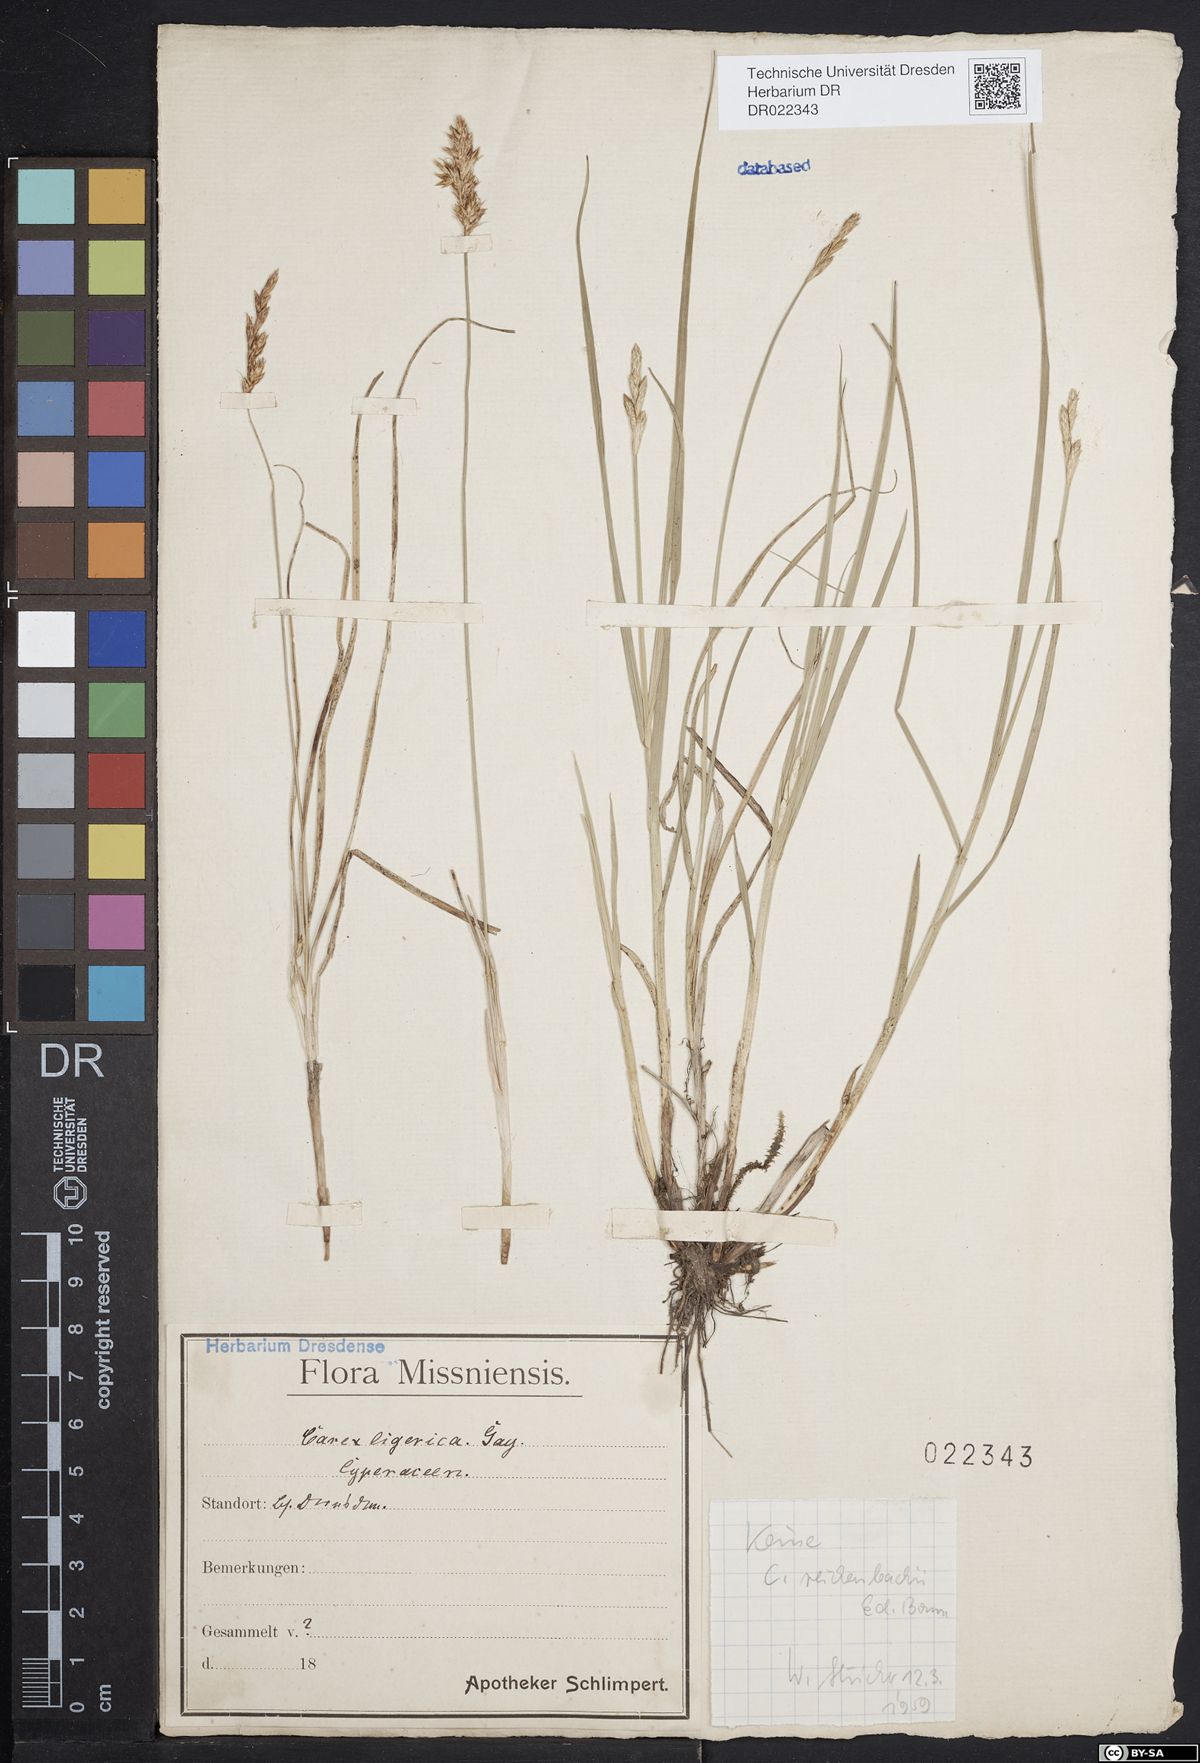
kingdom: Plantae
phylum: Tracheophyta
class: Liliopsida
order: Poales
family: Cyperaceae
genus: Carex
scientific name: Carex colchica
